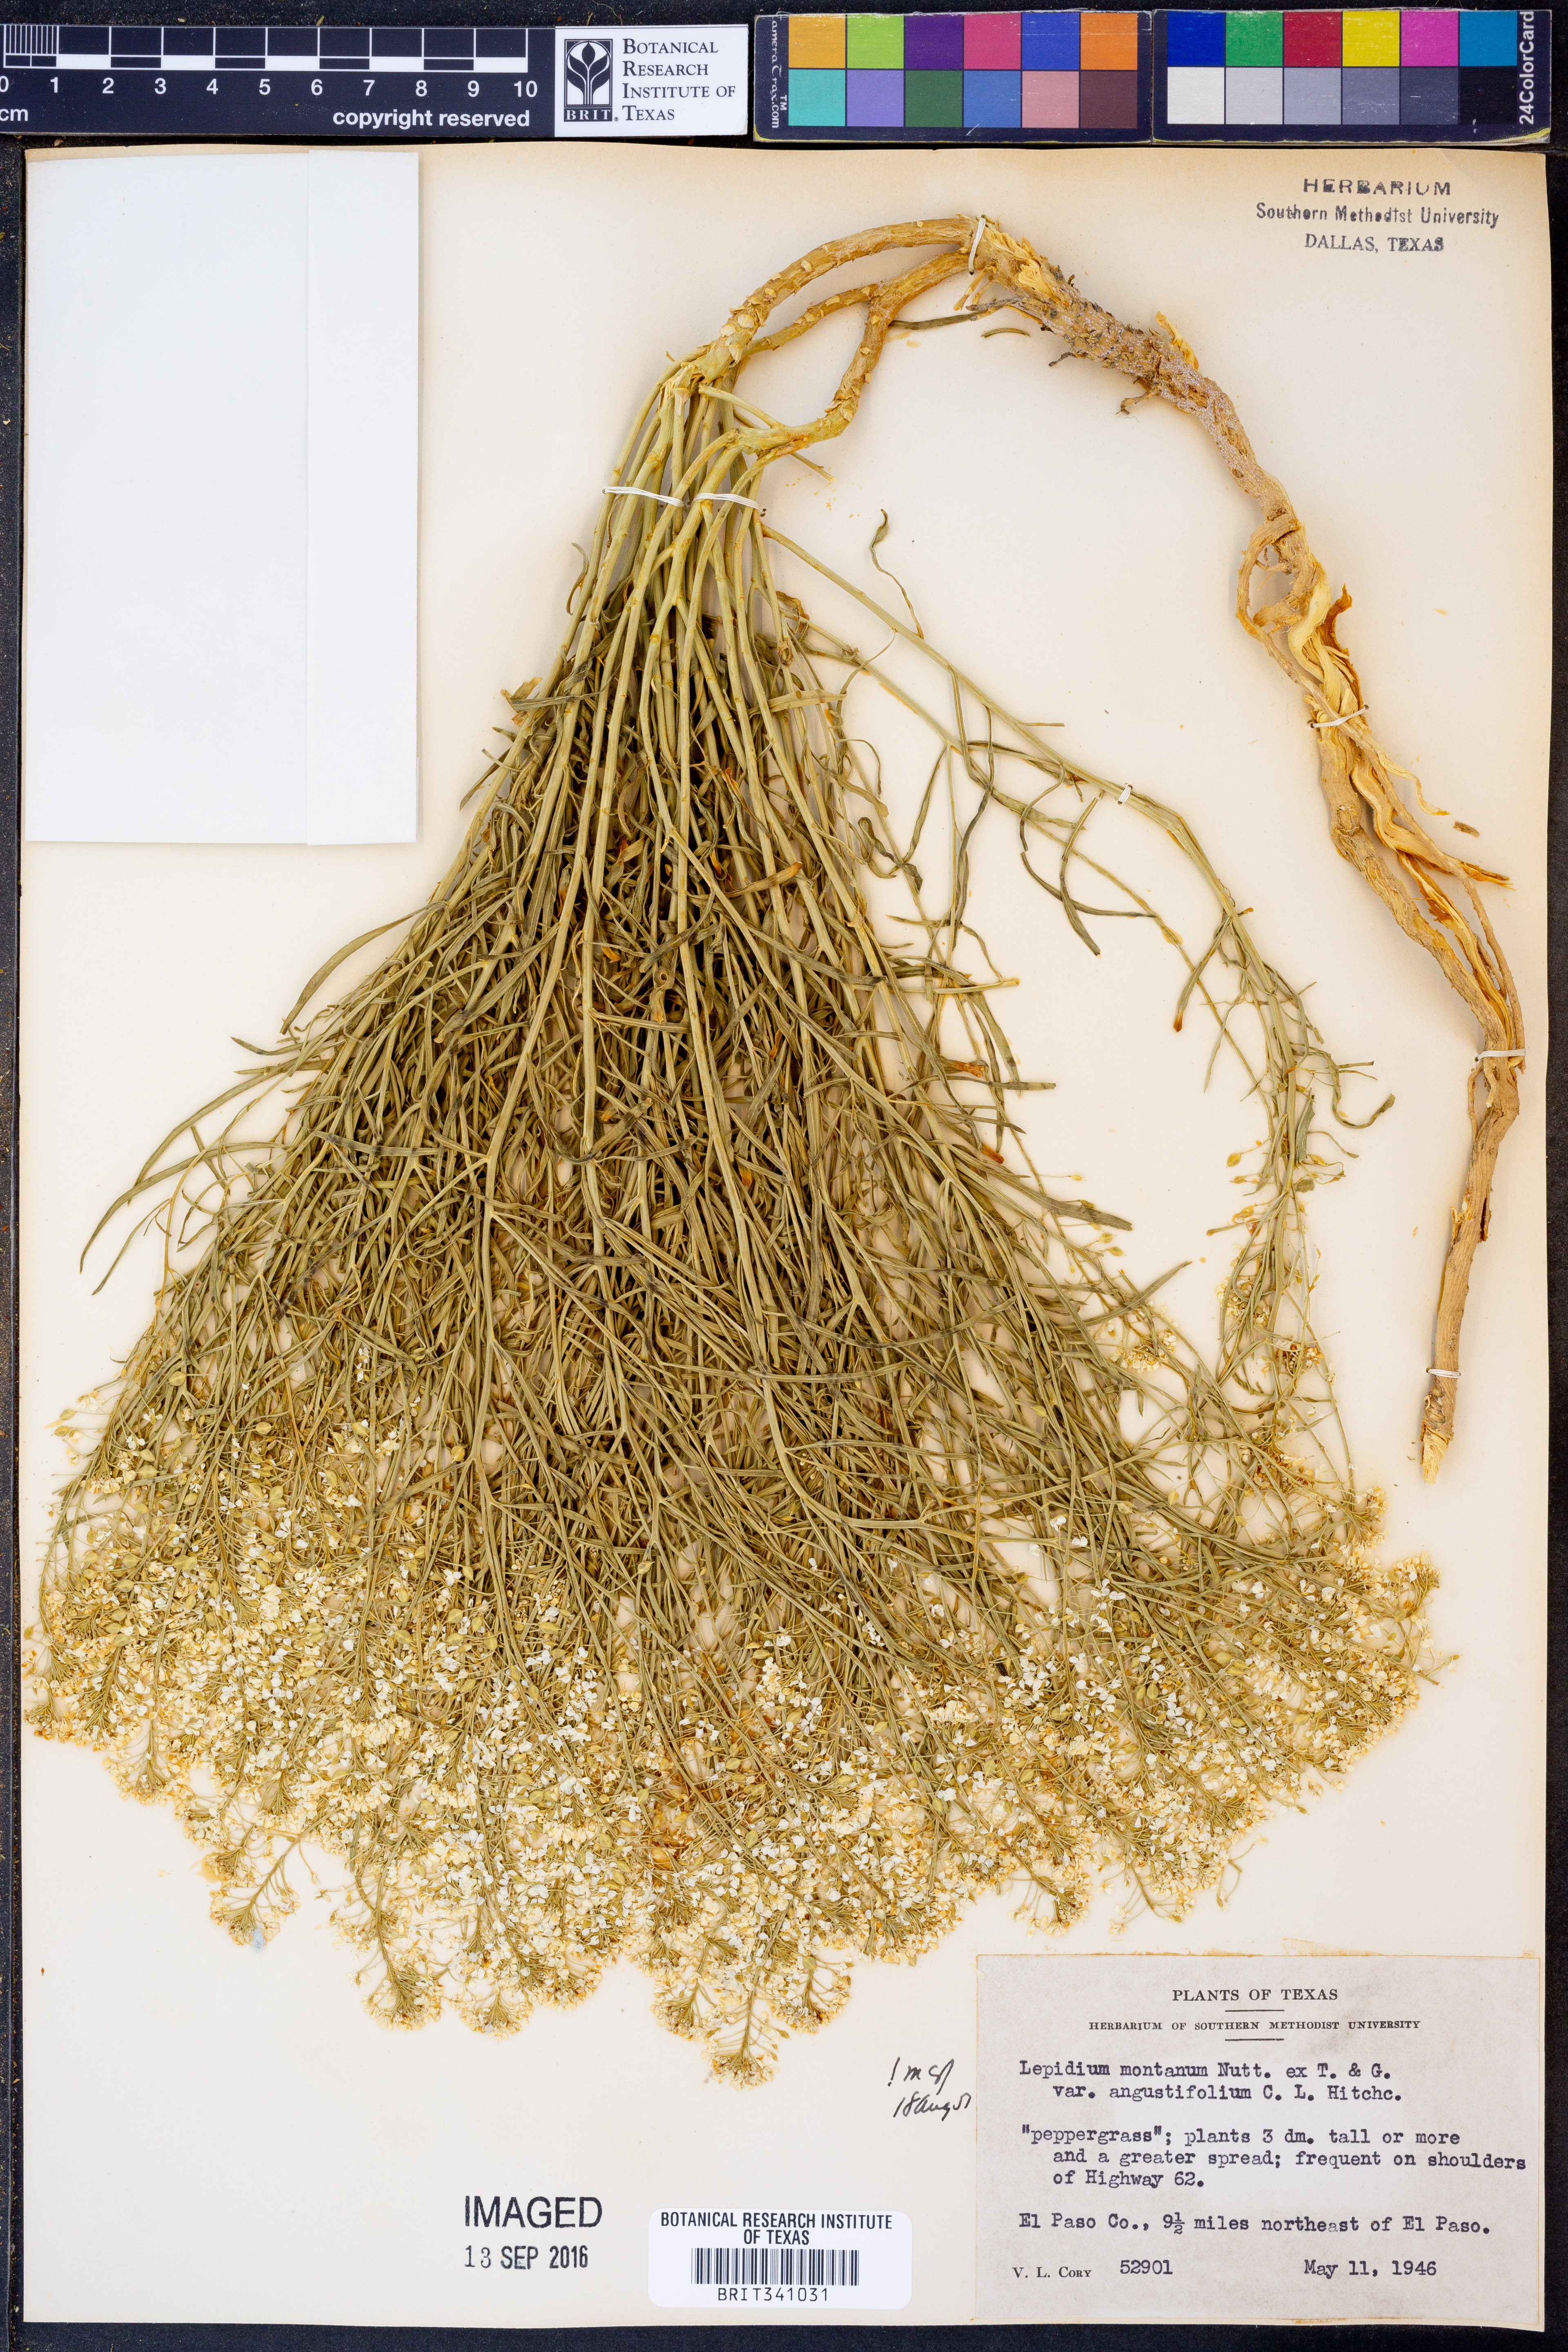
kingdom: Plantae
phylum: Tracheophyta
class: Magnoliopsida
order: Brassicales
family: Brassicaceae
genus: Lepidium
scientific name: Lepidium alyssoides
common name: Mesa pepperweed
